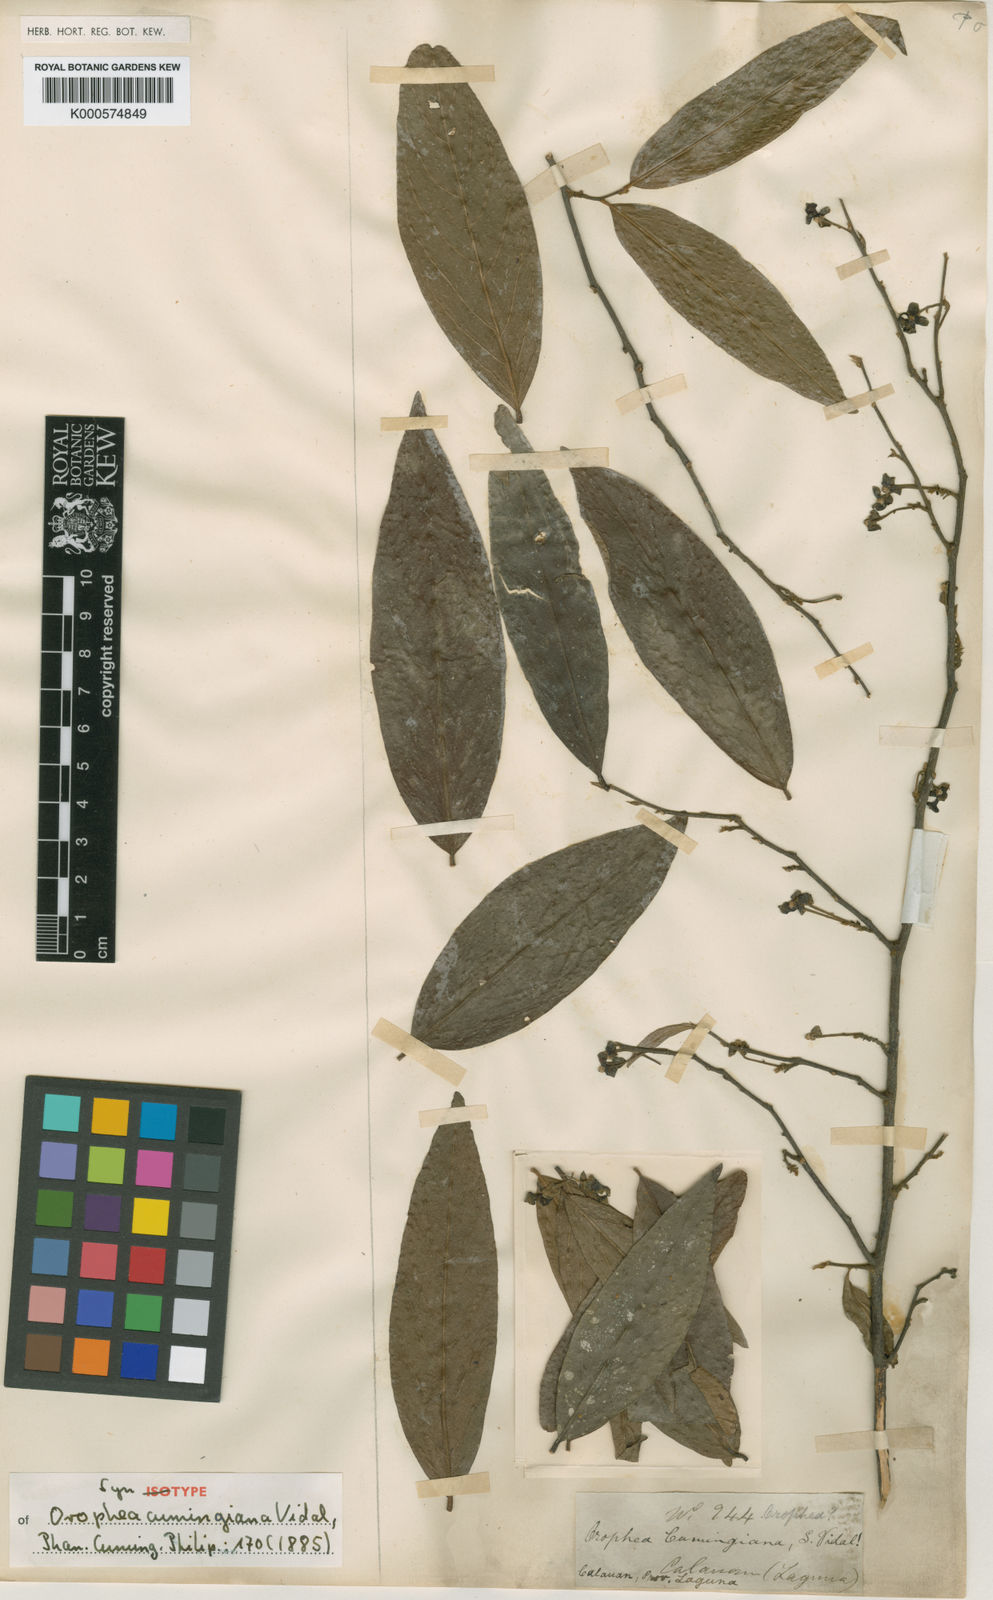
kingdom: Plantae
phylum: Tracheophyta
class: Magnoliopsida
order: Magnoliales
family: Annonaceae
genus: Orophea
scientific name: Orophea cumingiana
